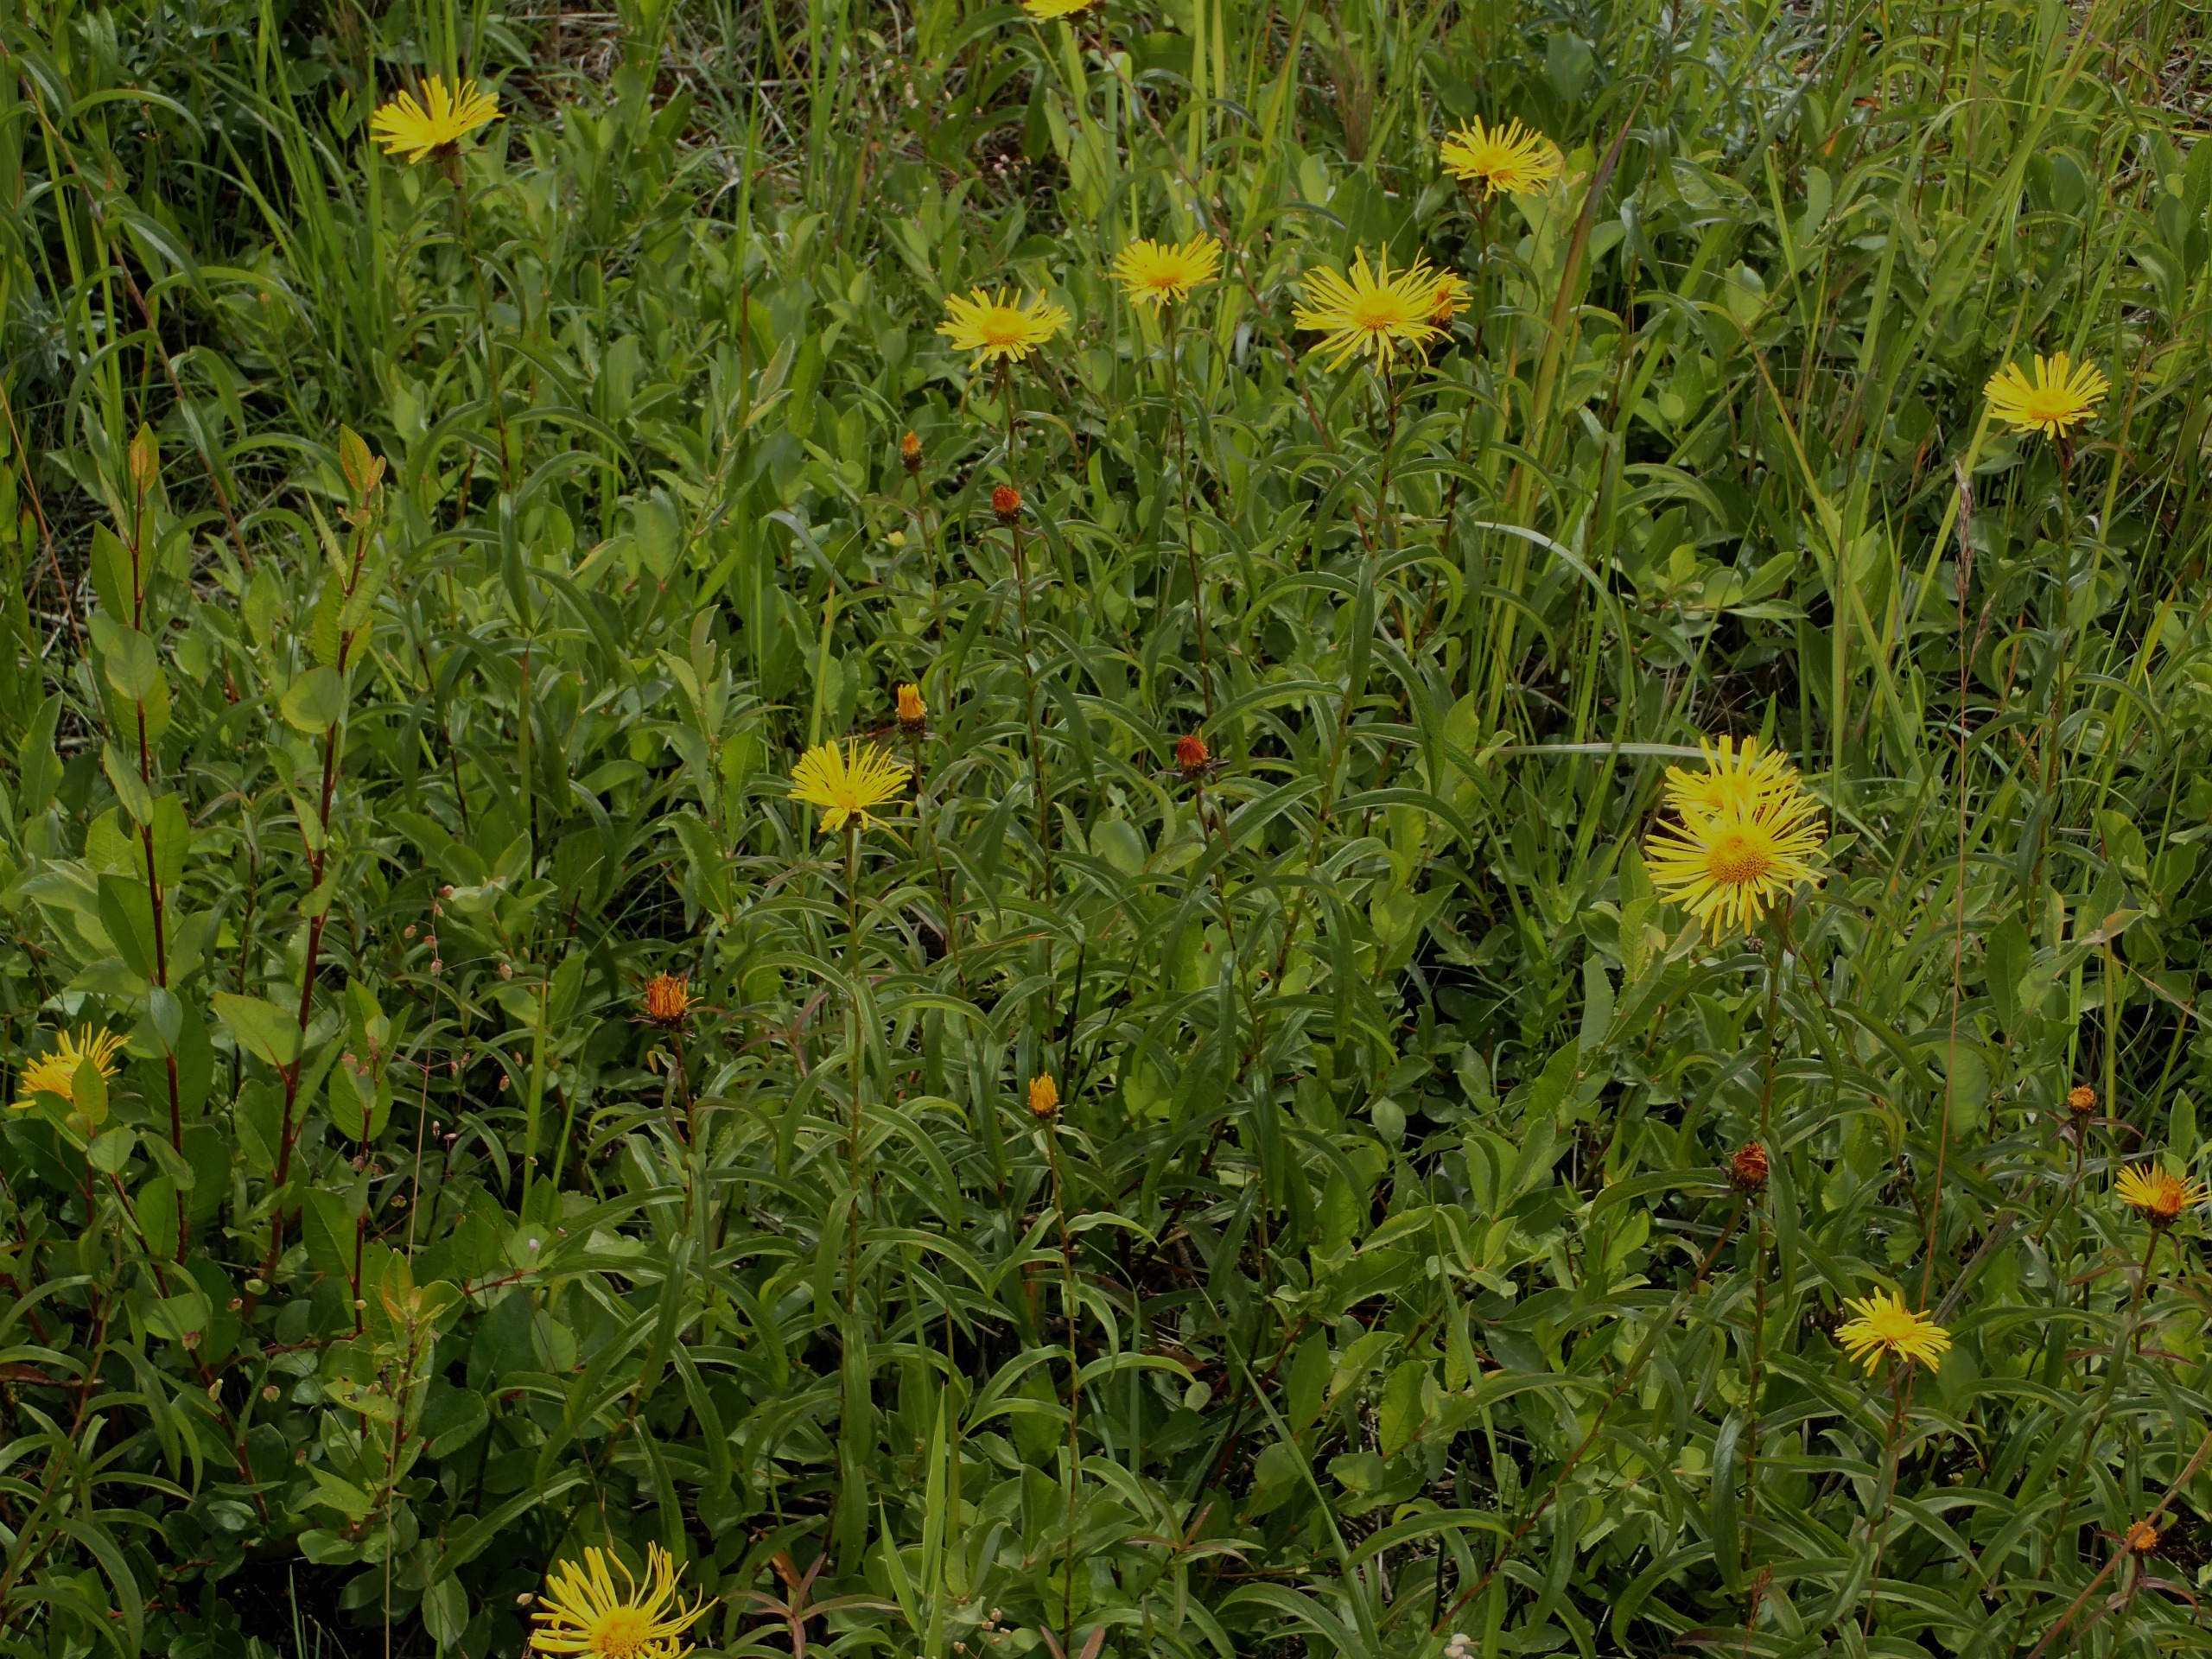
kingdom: Plantae
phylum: Tracheophyta
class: Magnoliopsida
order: Asterales
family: Asteraceae
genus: Pentanema
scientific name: Pentanema salicinum
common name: Pile-alant
